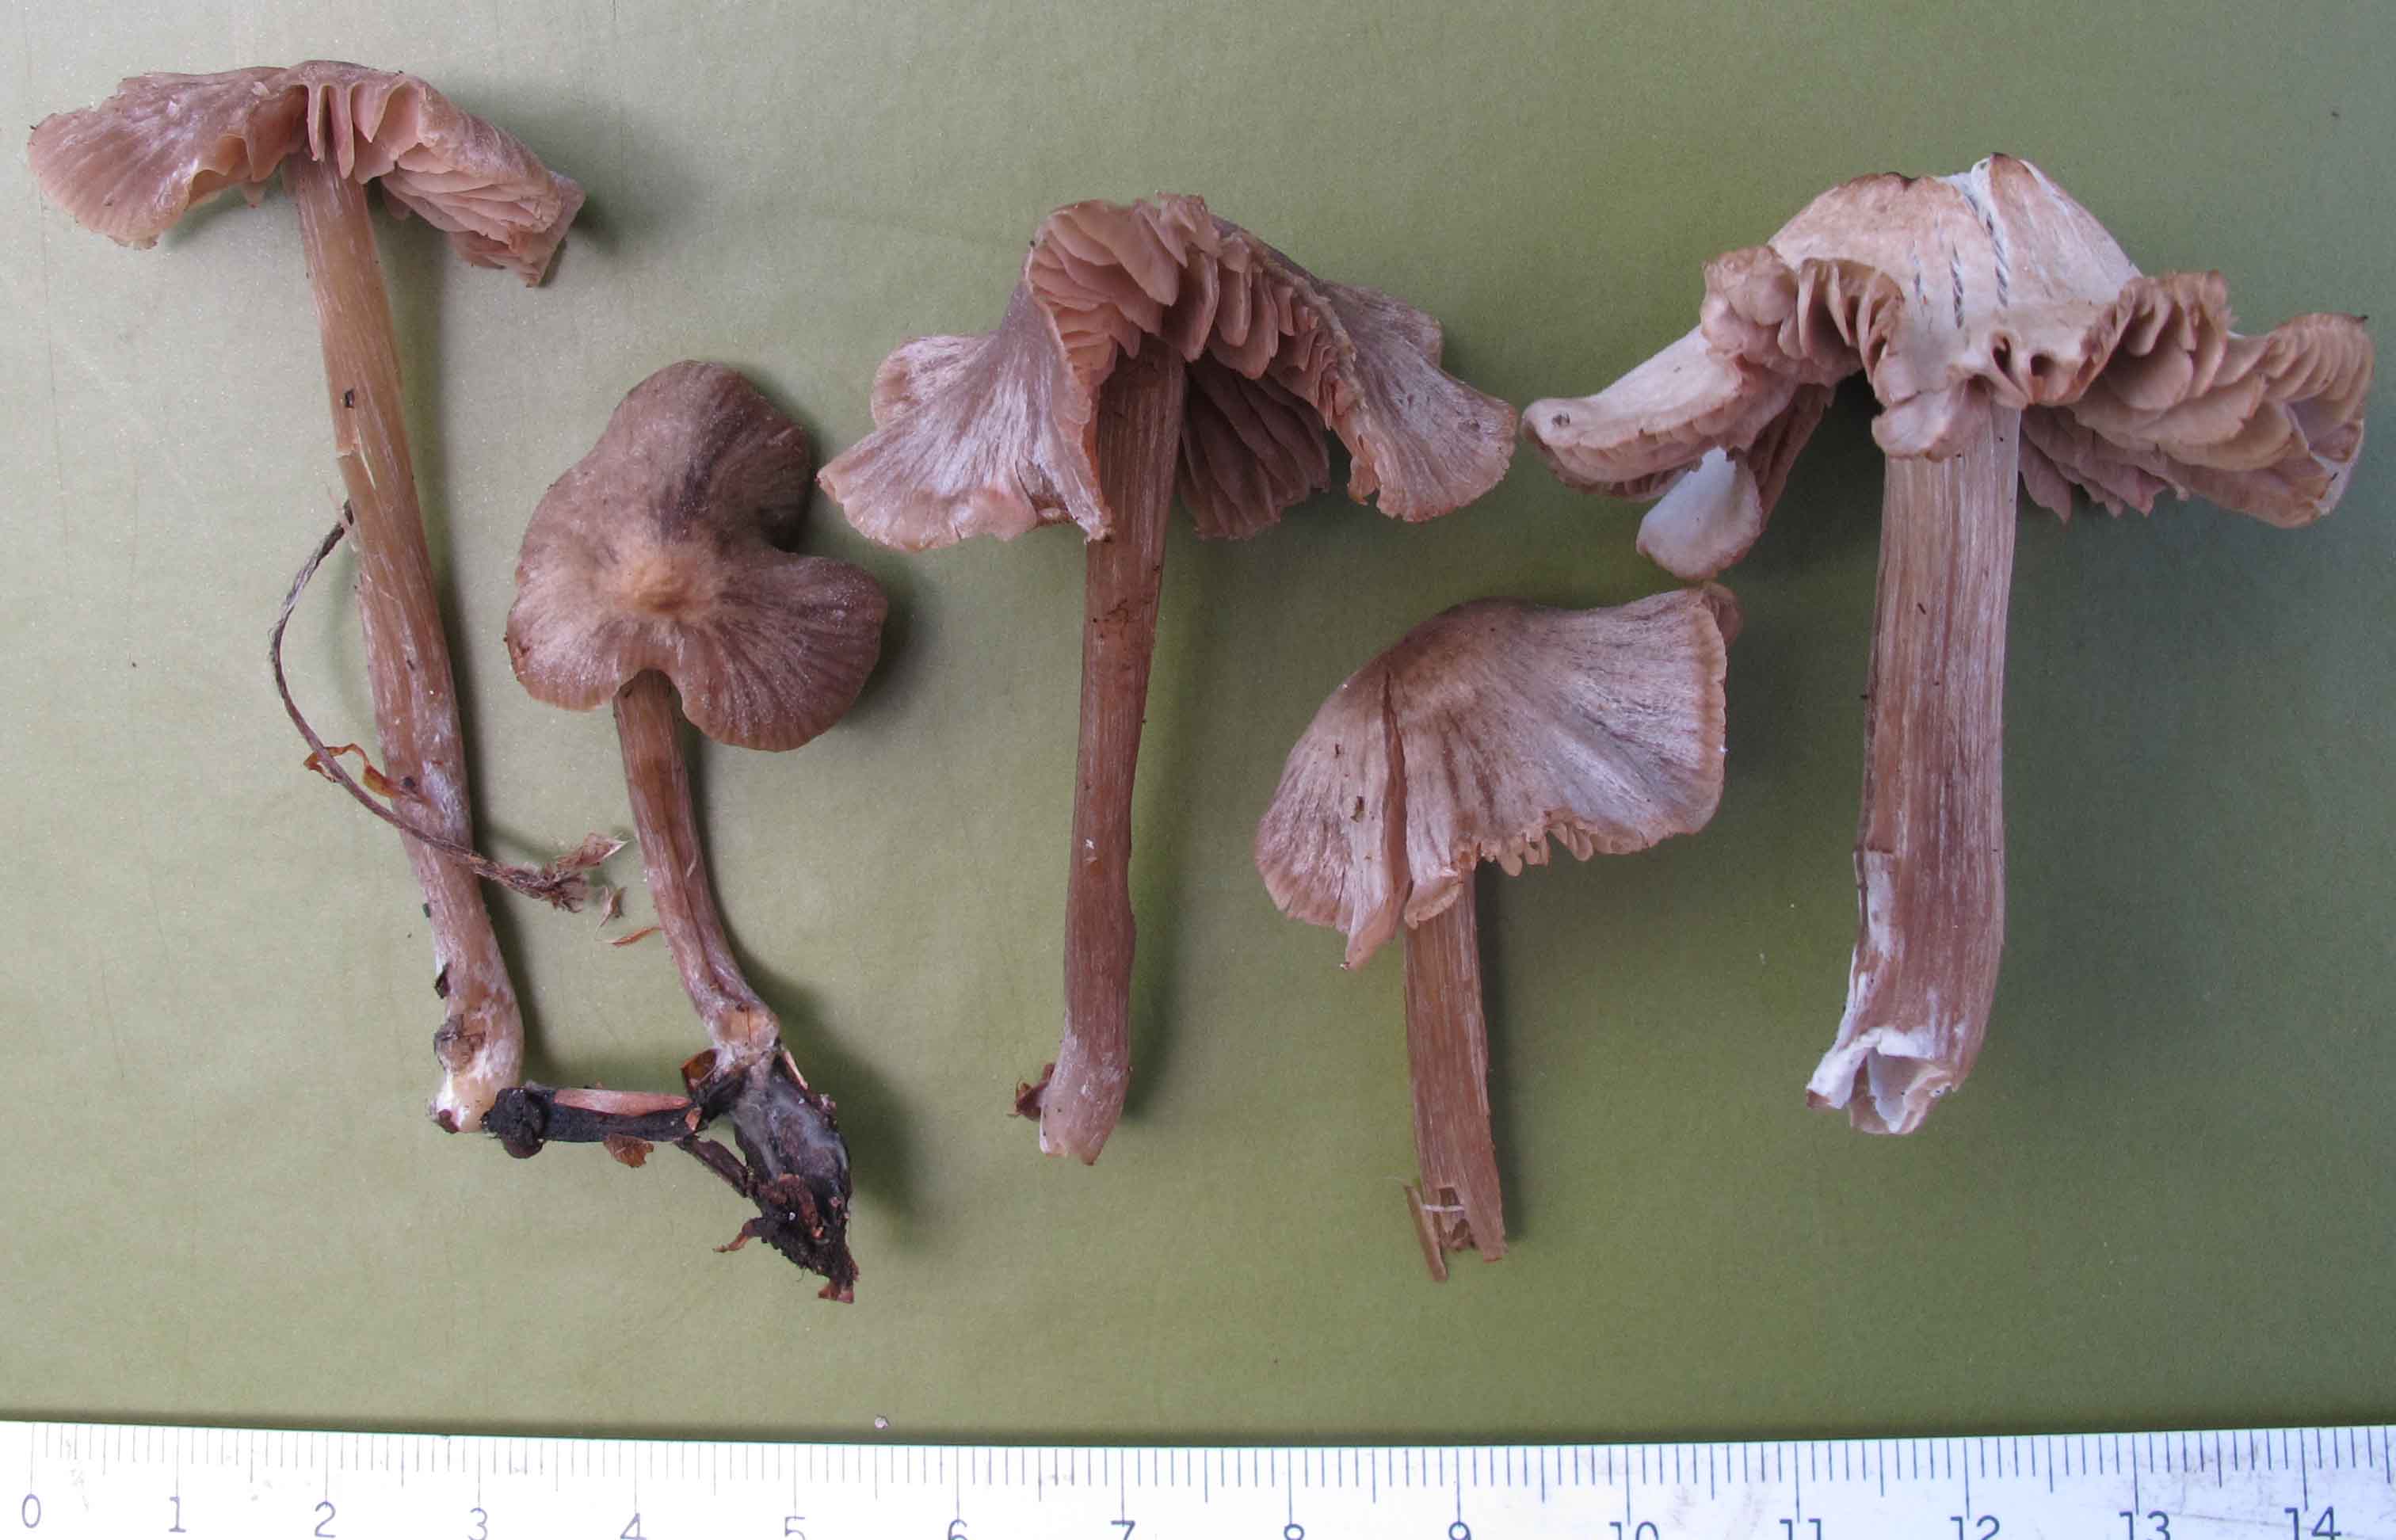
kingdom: Fungi
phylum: Basidiomycota
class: Agaricomycetes
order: Agaricales
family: Entolomataceae
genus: Entoloma
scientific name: Entoloma cuneatum
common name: dunstokket rødblad
